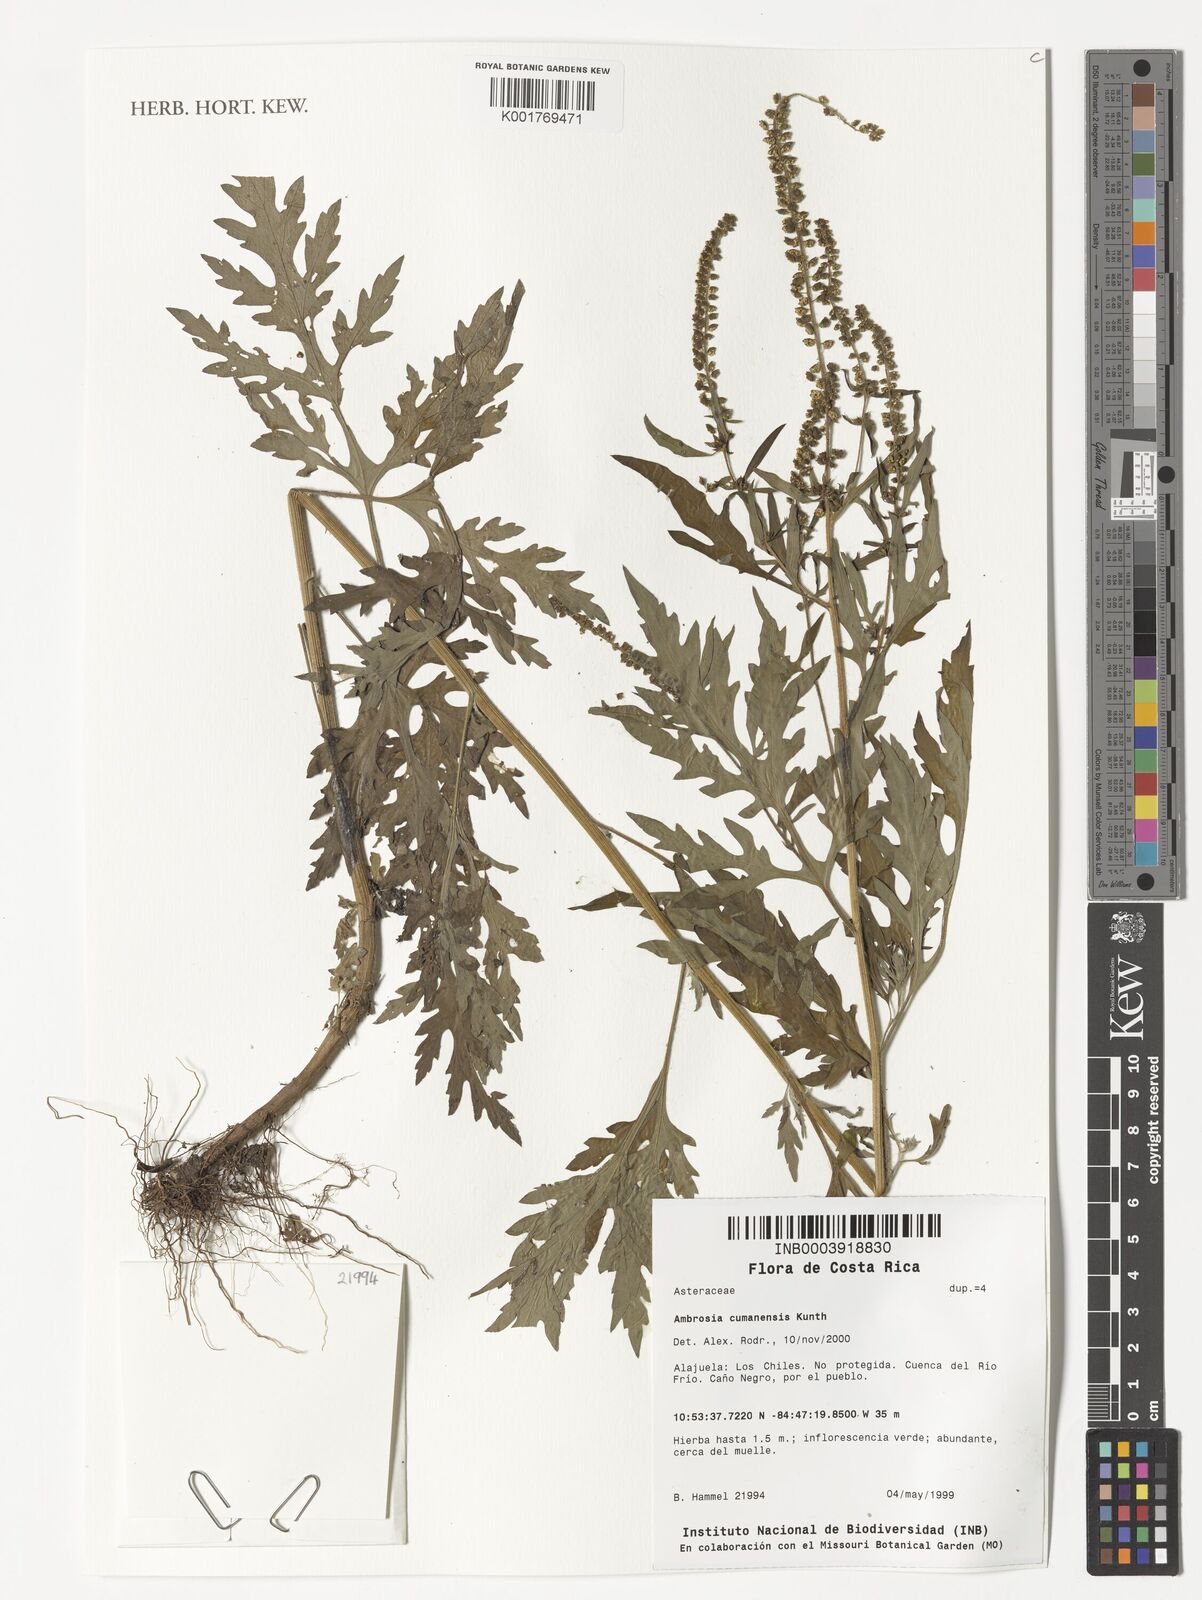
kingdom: Plantae
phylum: Tracheophyta
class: Magnoliopsida
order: Asterales
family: Asteraceae
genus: Ambrosia
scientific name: Ambrosia cumanensis
